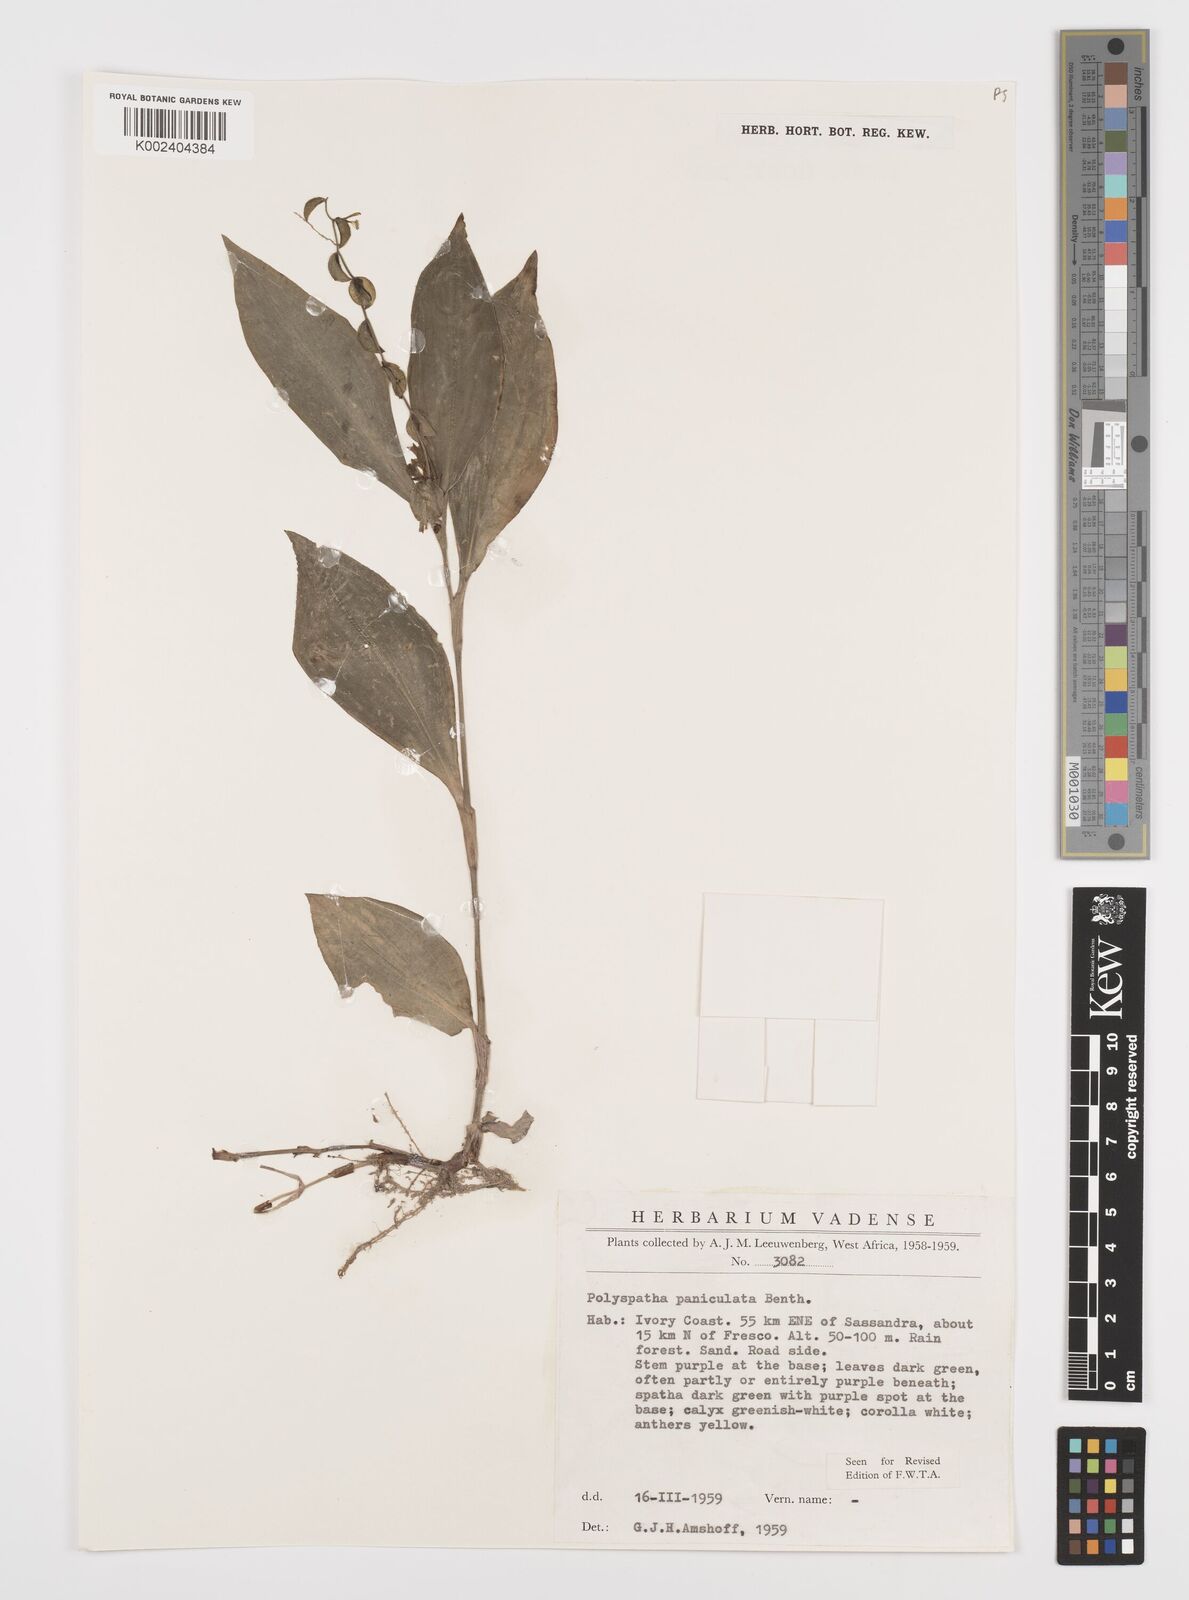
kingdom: Plantae
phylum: Tracheophyta
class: Liliopsida
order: Commelinales
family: Commelinaceae
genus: Polyspatha
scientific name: Polyspatha paniculata
